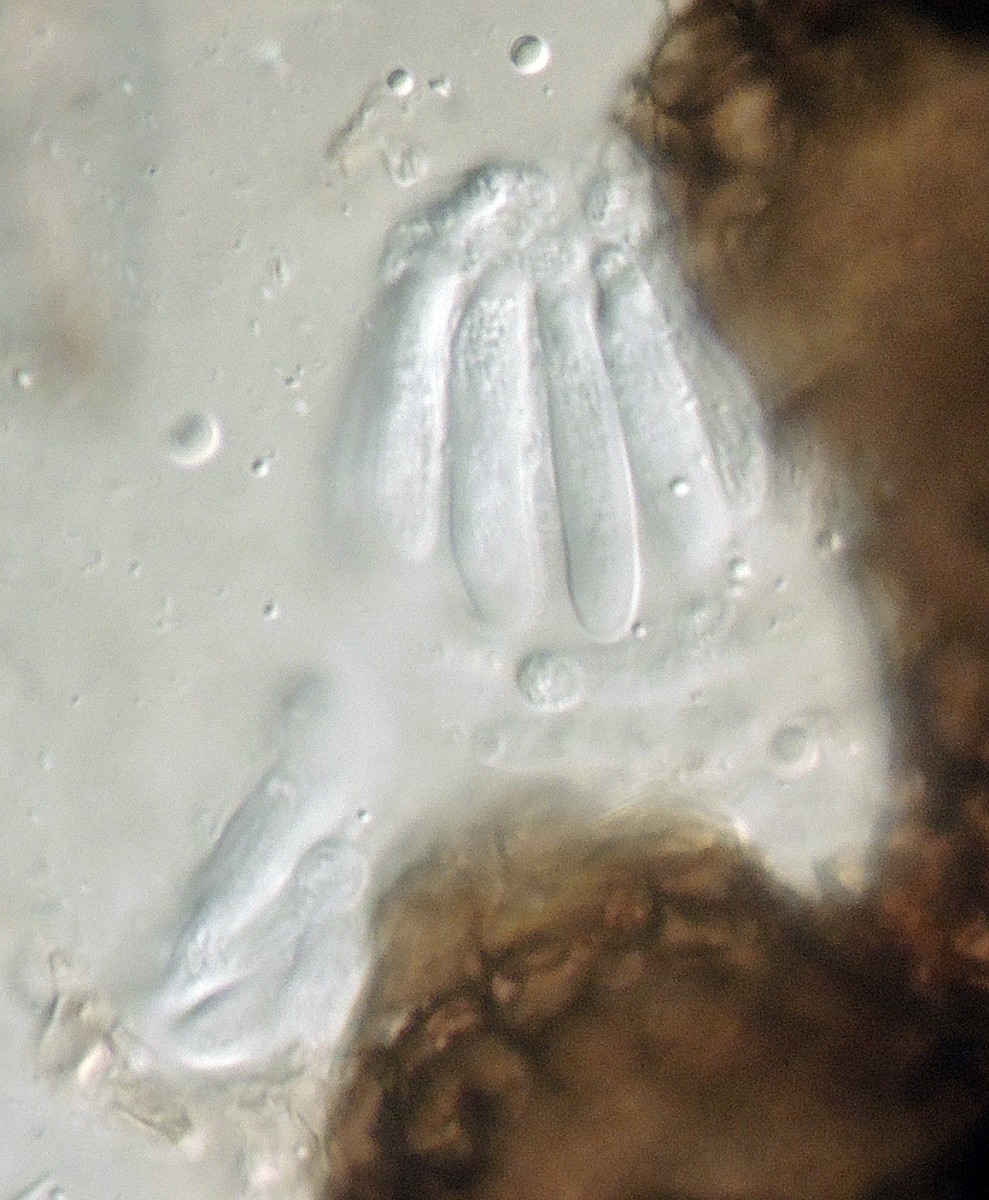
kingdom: Fungi
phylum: Ascomycota
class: Dothideomycetes
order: Capnodiales
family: Mycosphaerellaceae
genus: Mycosphaerella
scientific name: Mycosphaerella
